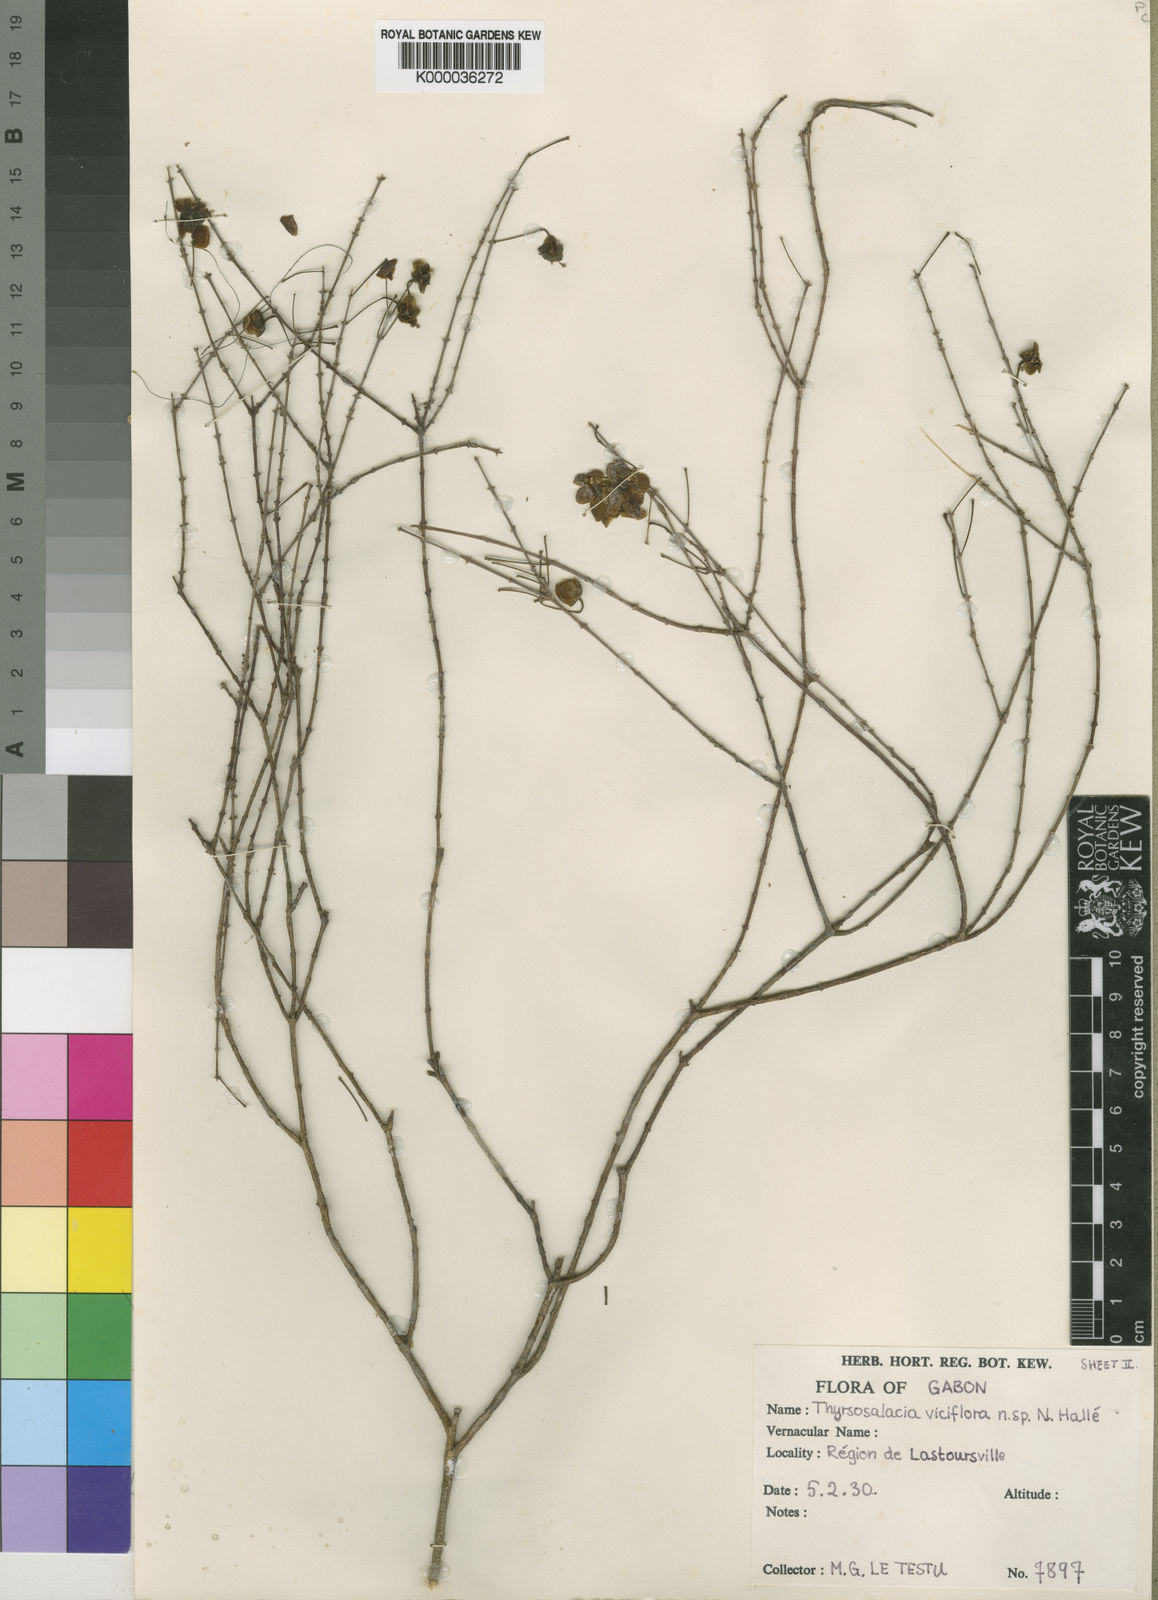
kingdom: Plantae
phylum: Tracheophyta
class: Magnoliopsida
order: Celastrales
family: Celastraceae
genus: Thyrsosalacia
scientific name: Thyrsosalacia
